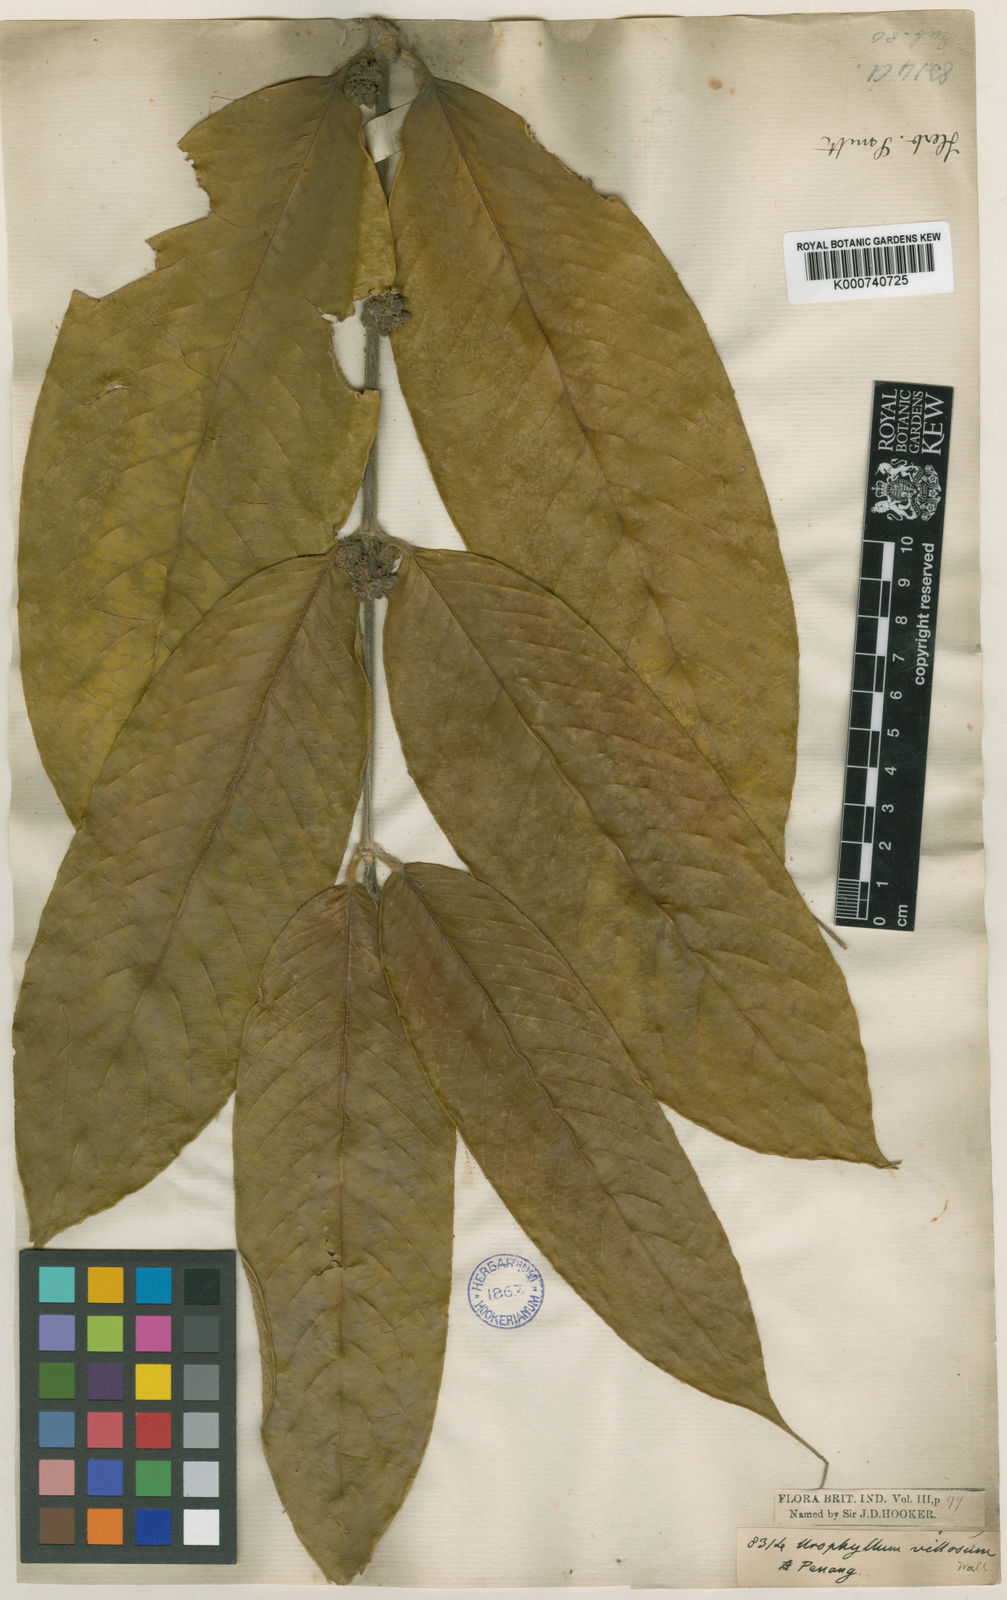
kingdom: Plantae
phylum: Tracheophyta
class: Magnoliopsida
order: Gentianales
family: Rubiaceae
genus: Urophyllum
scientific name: Urophyllum villosum
